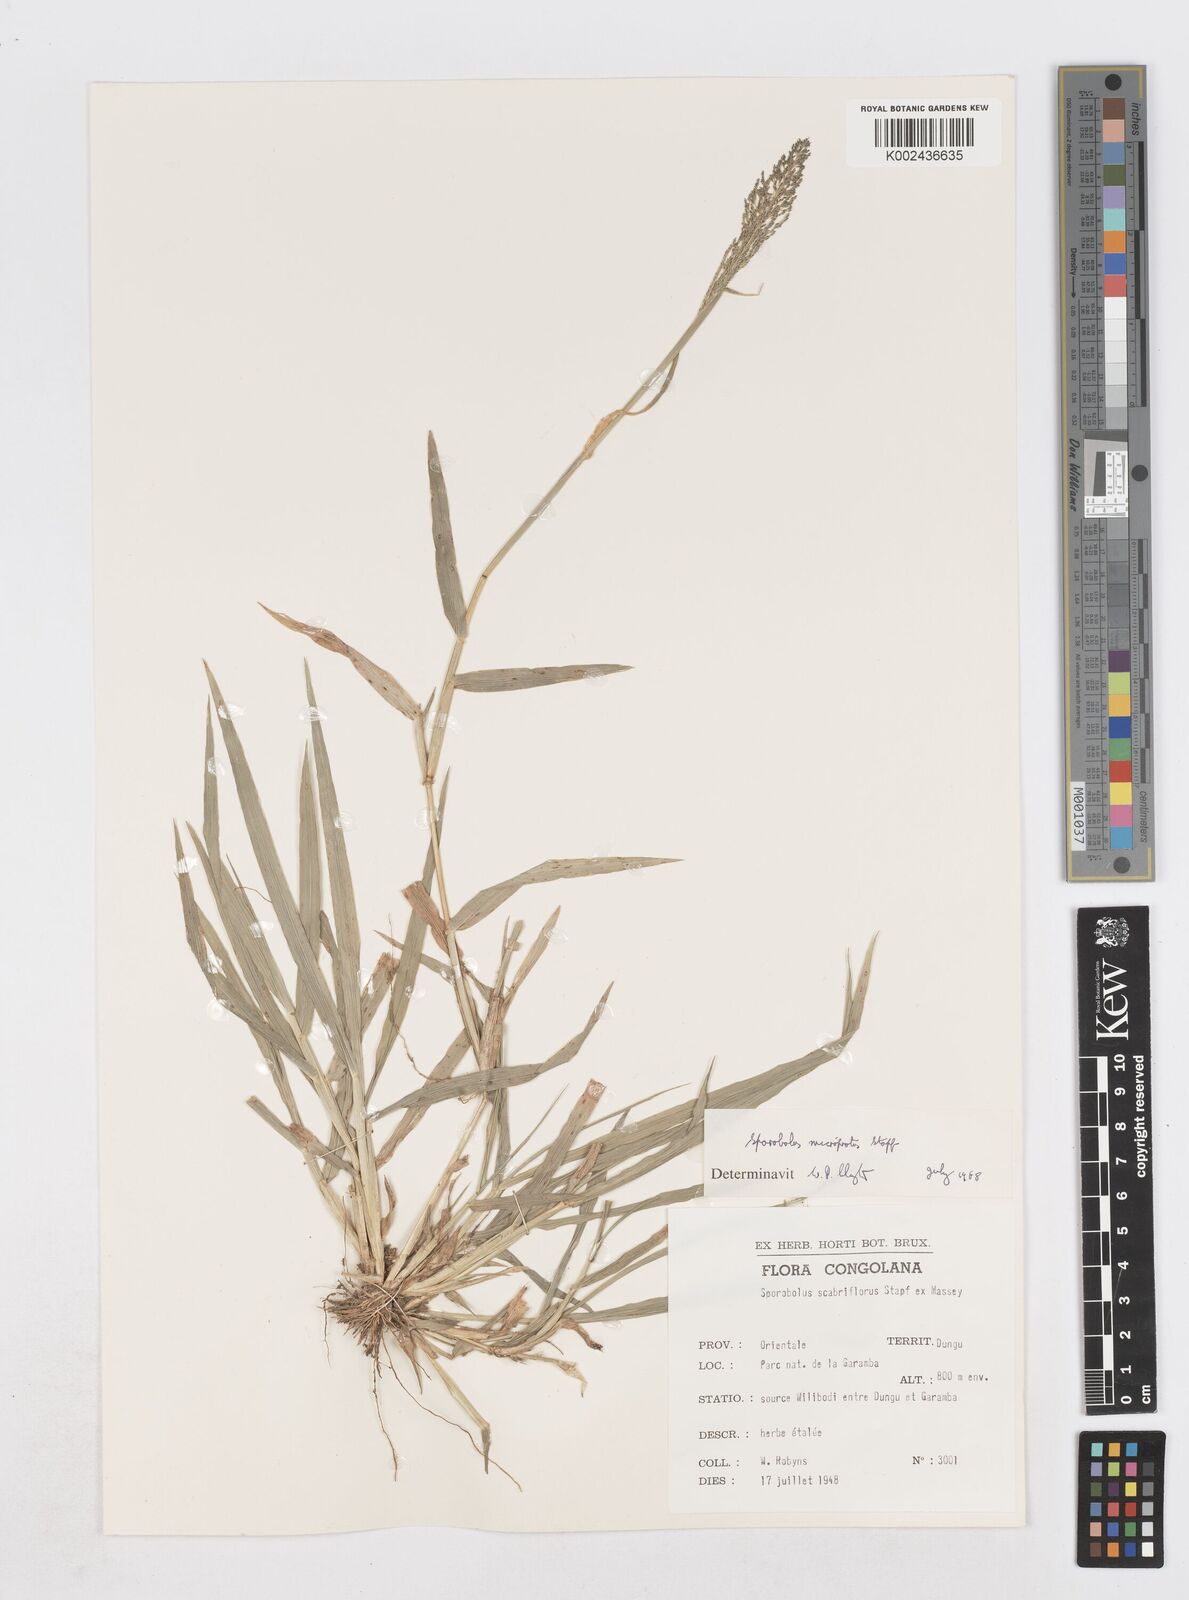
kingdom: Plantae
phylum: Tracheophyta
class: Liliopsida
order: Poales
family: Poaceae
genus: Sporobolus
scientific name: Sporobolus microprotus
